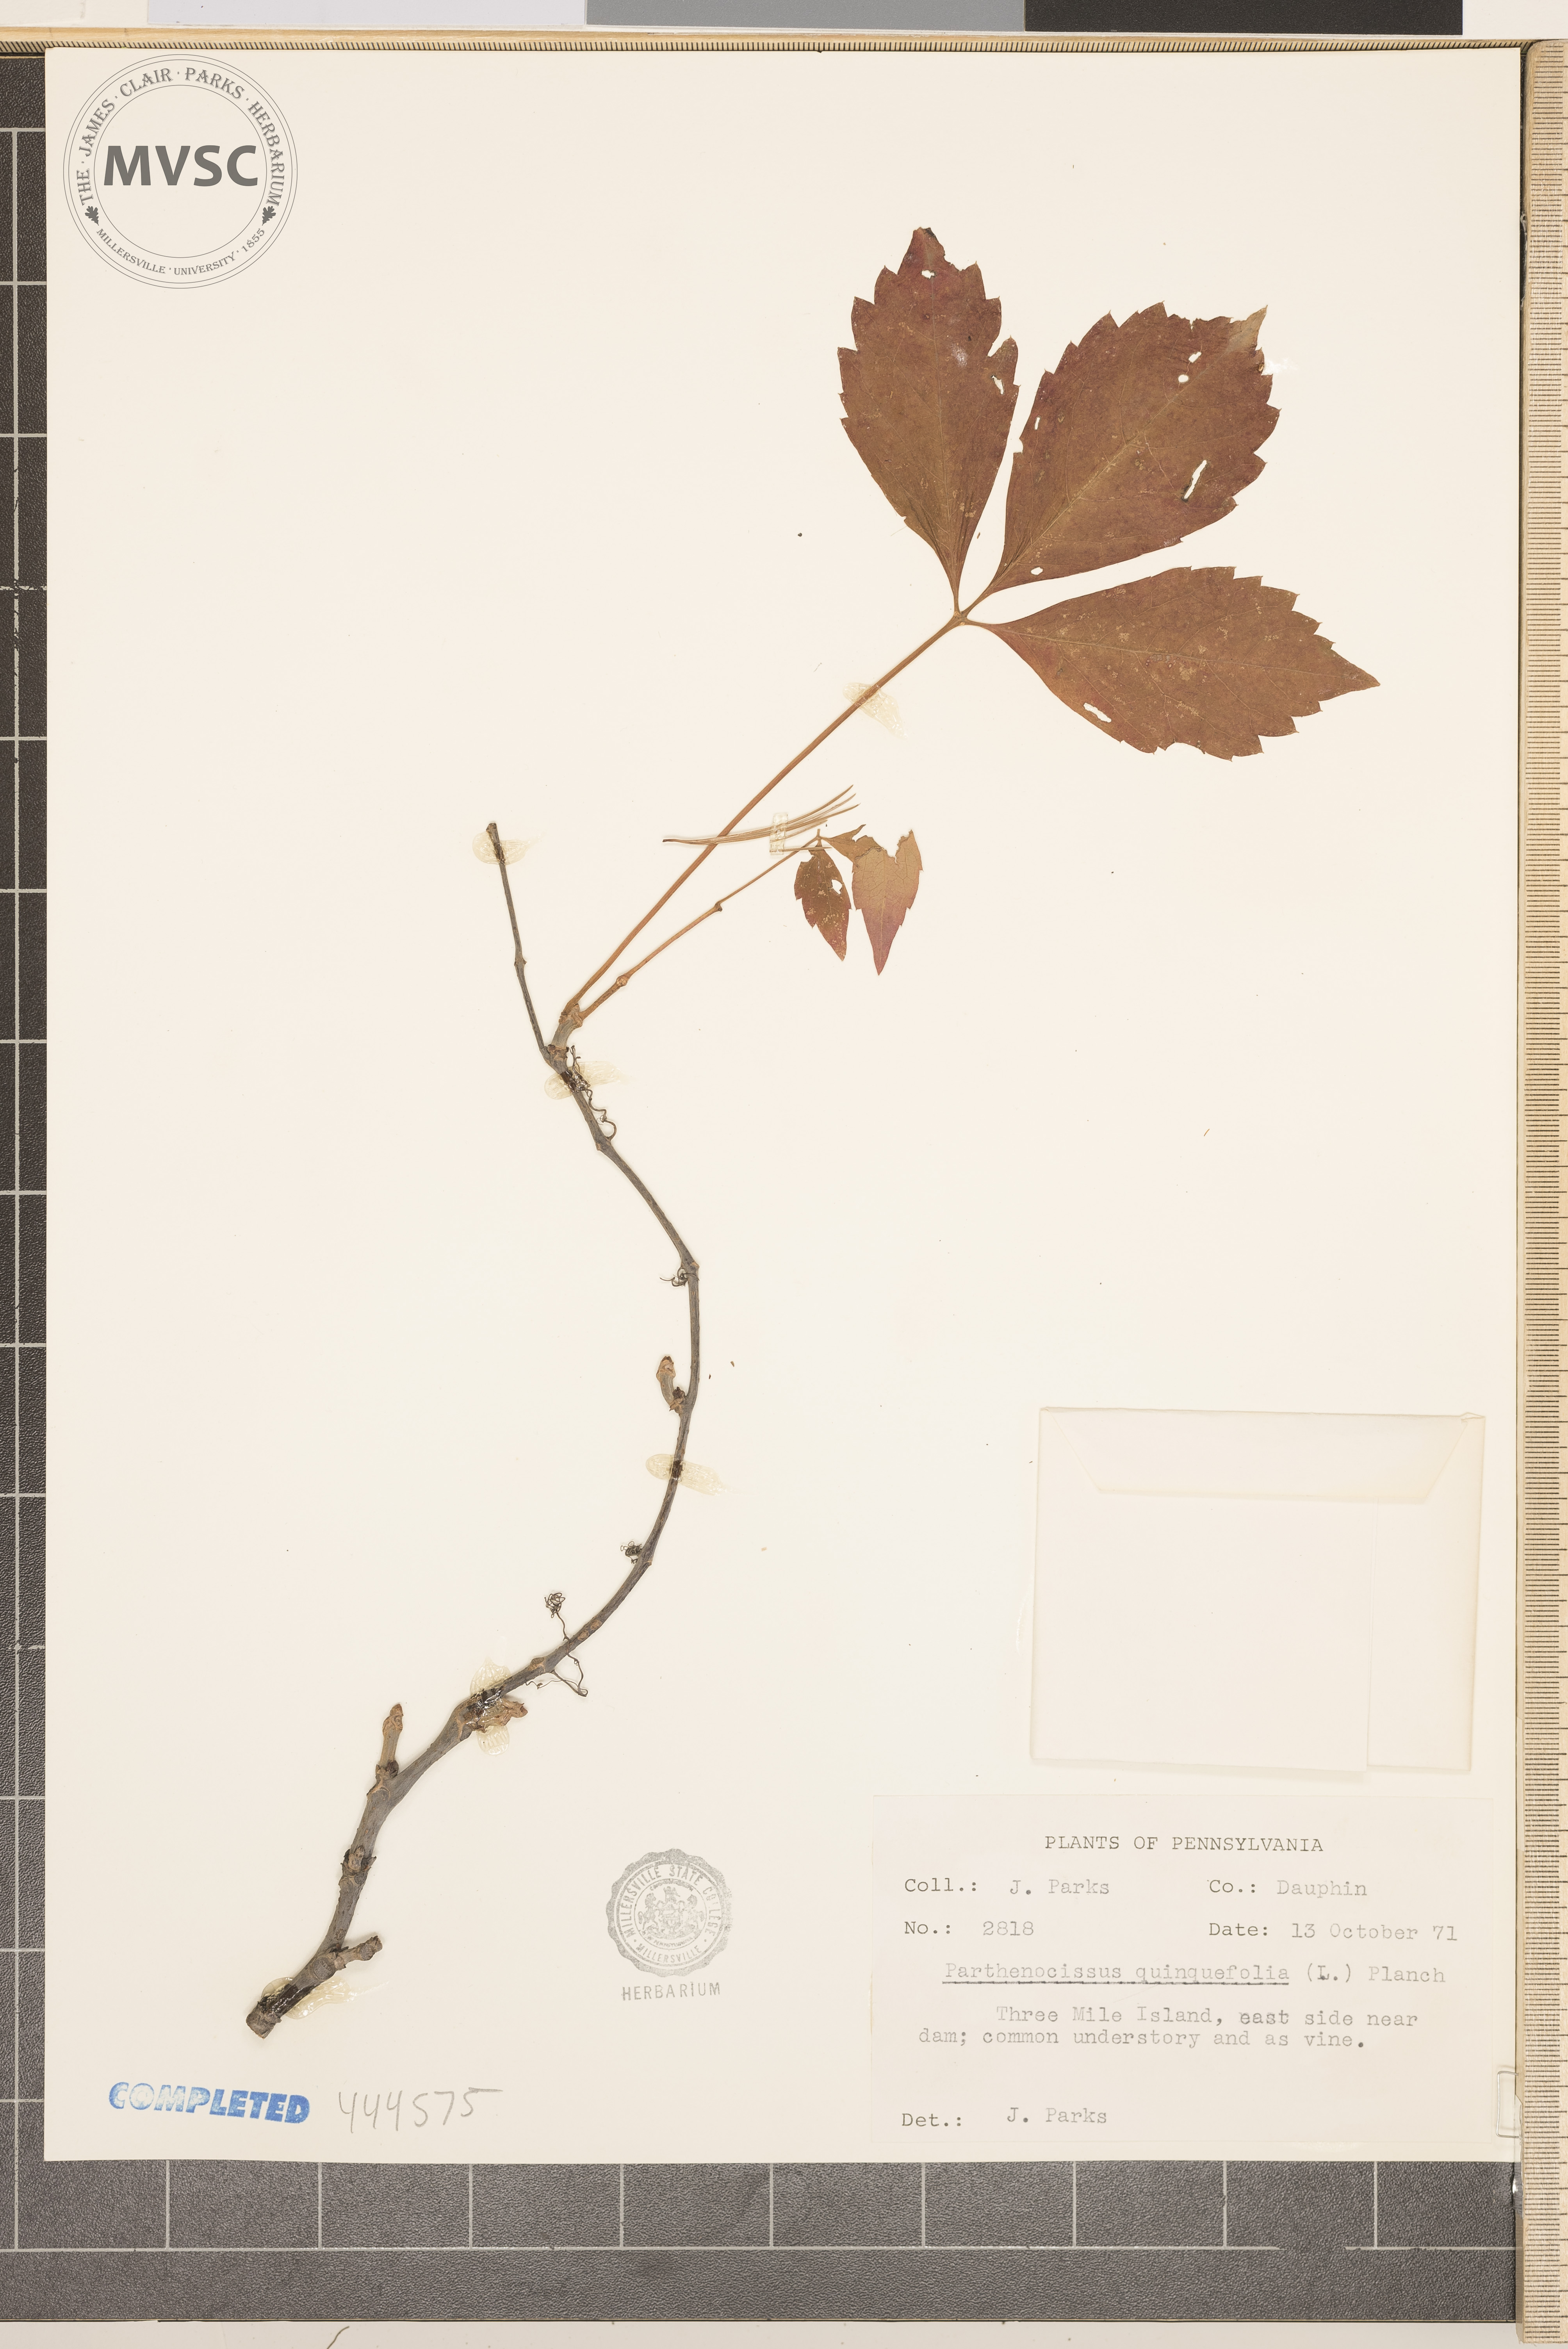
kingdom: Plantae
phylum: Tracheophyta
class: Magnoliopsida
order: Vitales
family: Vitaceae
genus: Parthenocissus
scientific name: Parthenocissus quinquefolia
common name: Virginia-creeper
